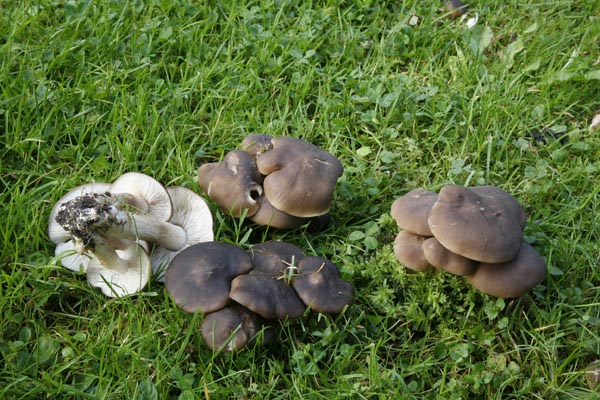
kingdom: Fungi
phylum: Basidiomycota
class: Agaricomycetes
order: Agaricales
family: Lyophyllaceae
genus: Lyophyllum
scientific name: Lyophyllum decastes
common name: Clustered domecap
